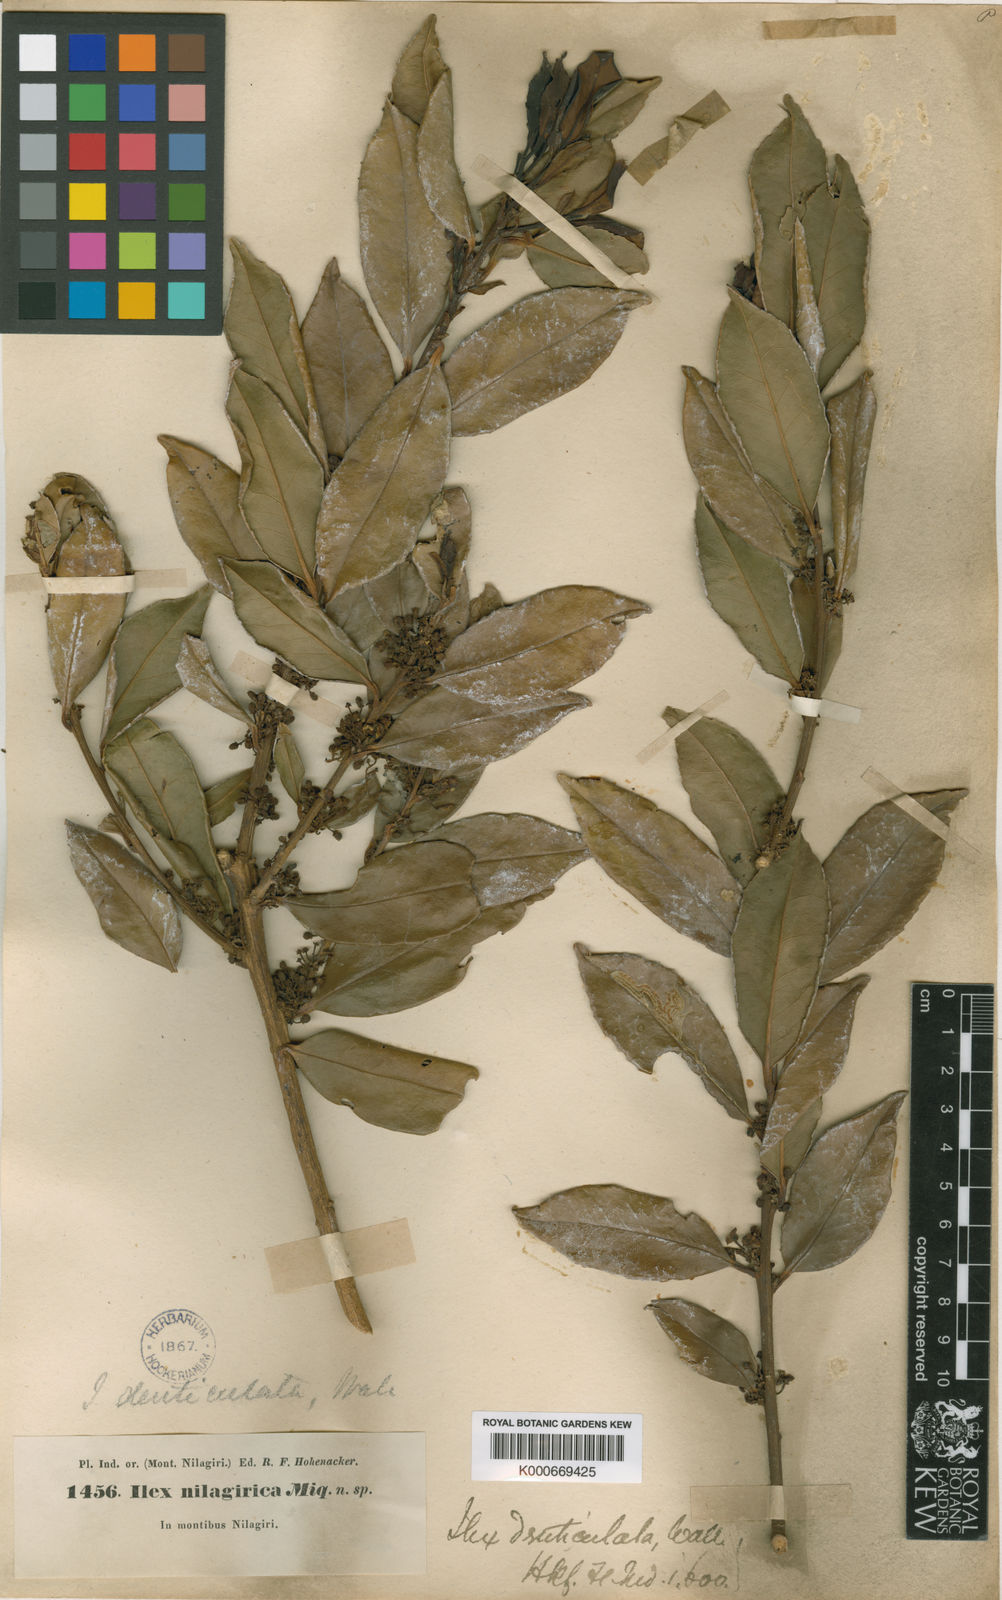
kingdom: Plantae
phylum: Tracheophyta
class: Magnoliopsida
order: Aquifoliales
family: Aquifoliaceae
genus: Ilex
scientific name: Ilex denticulata
